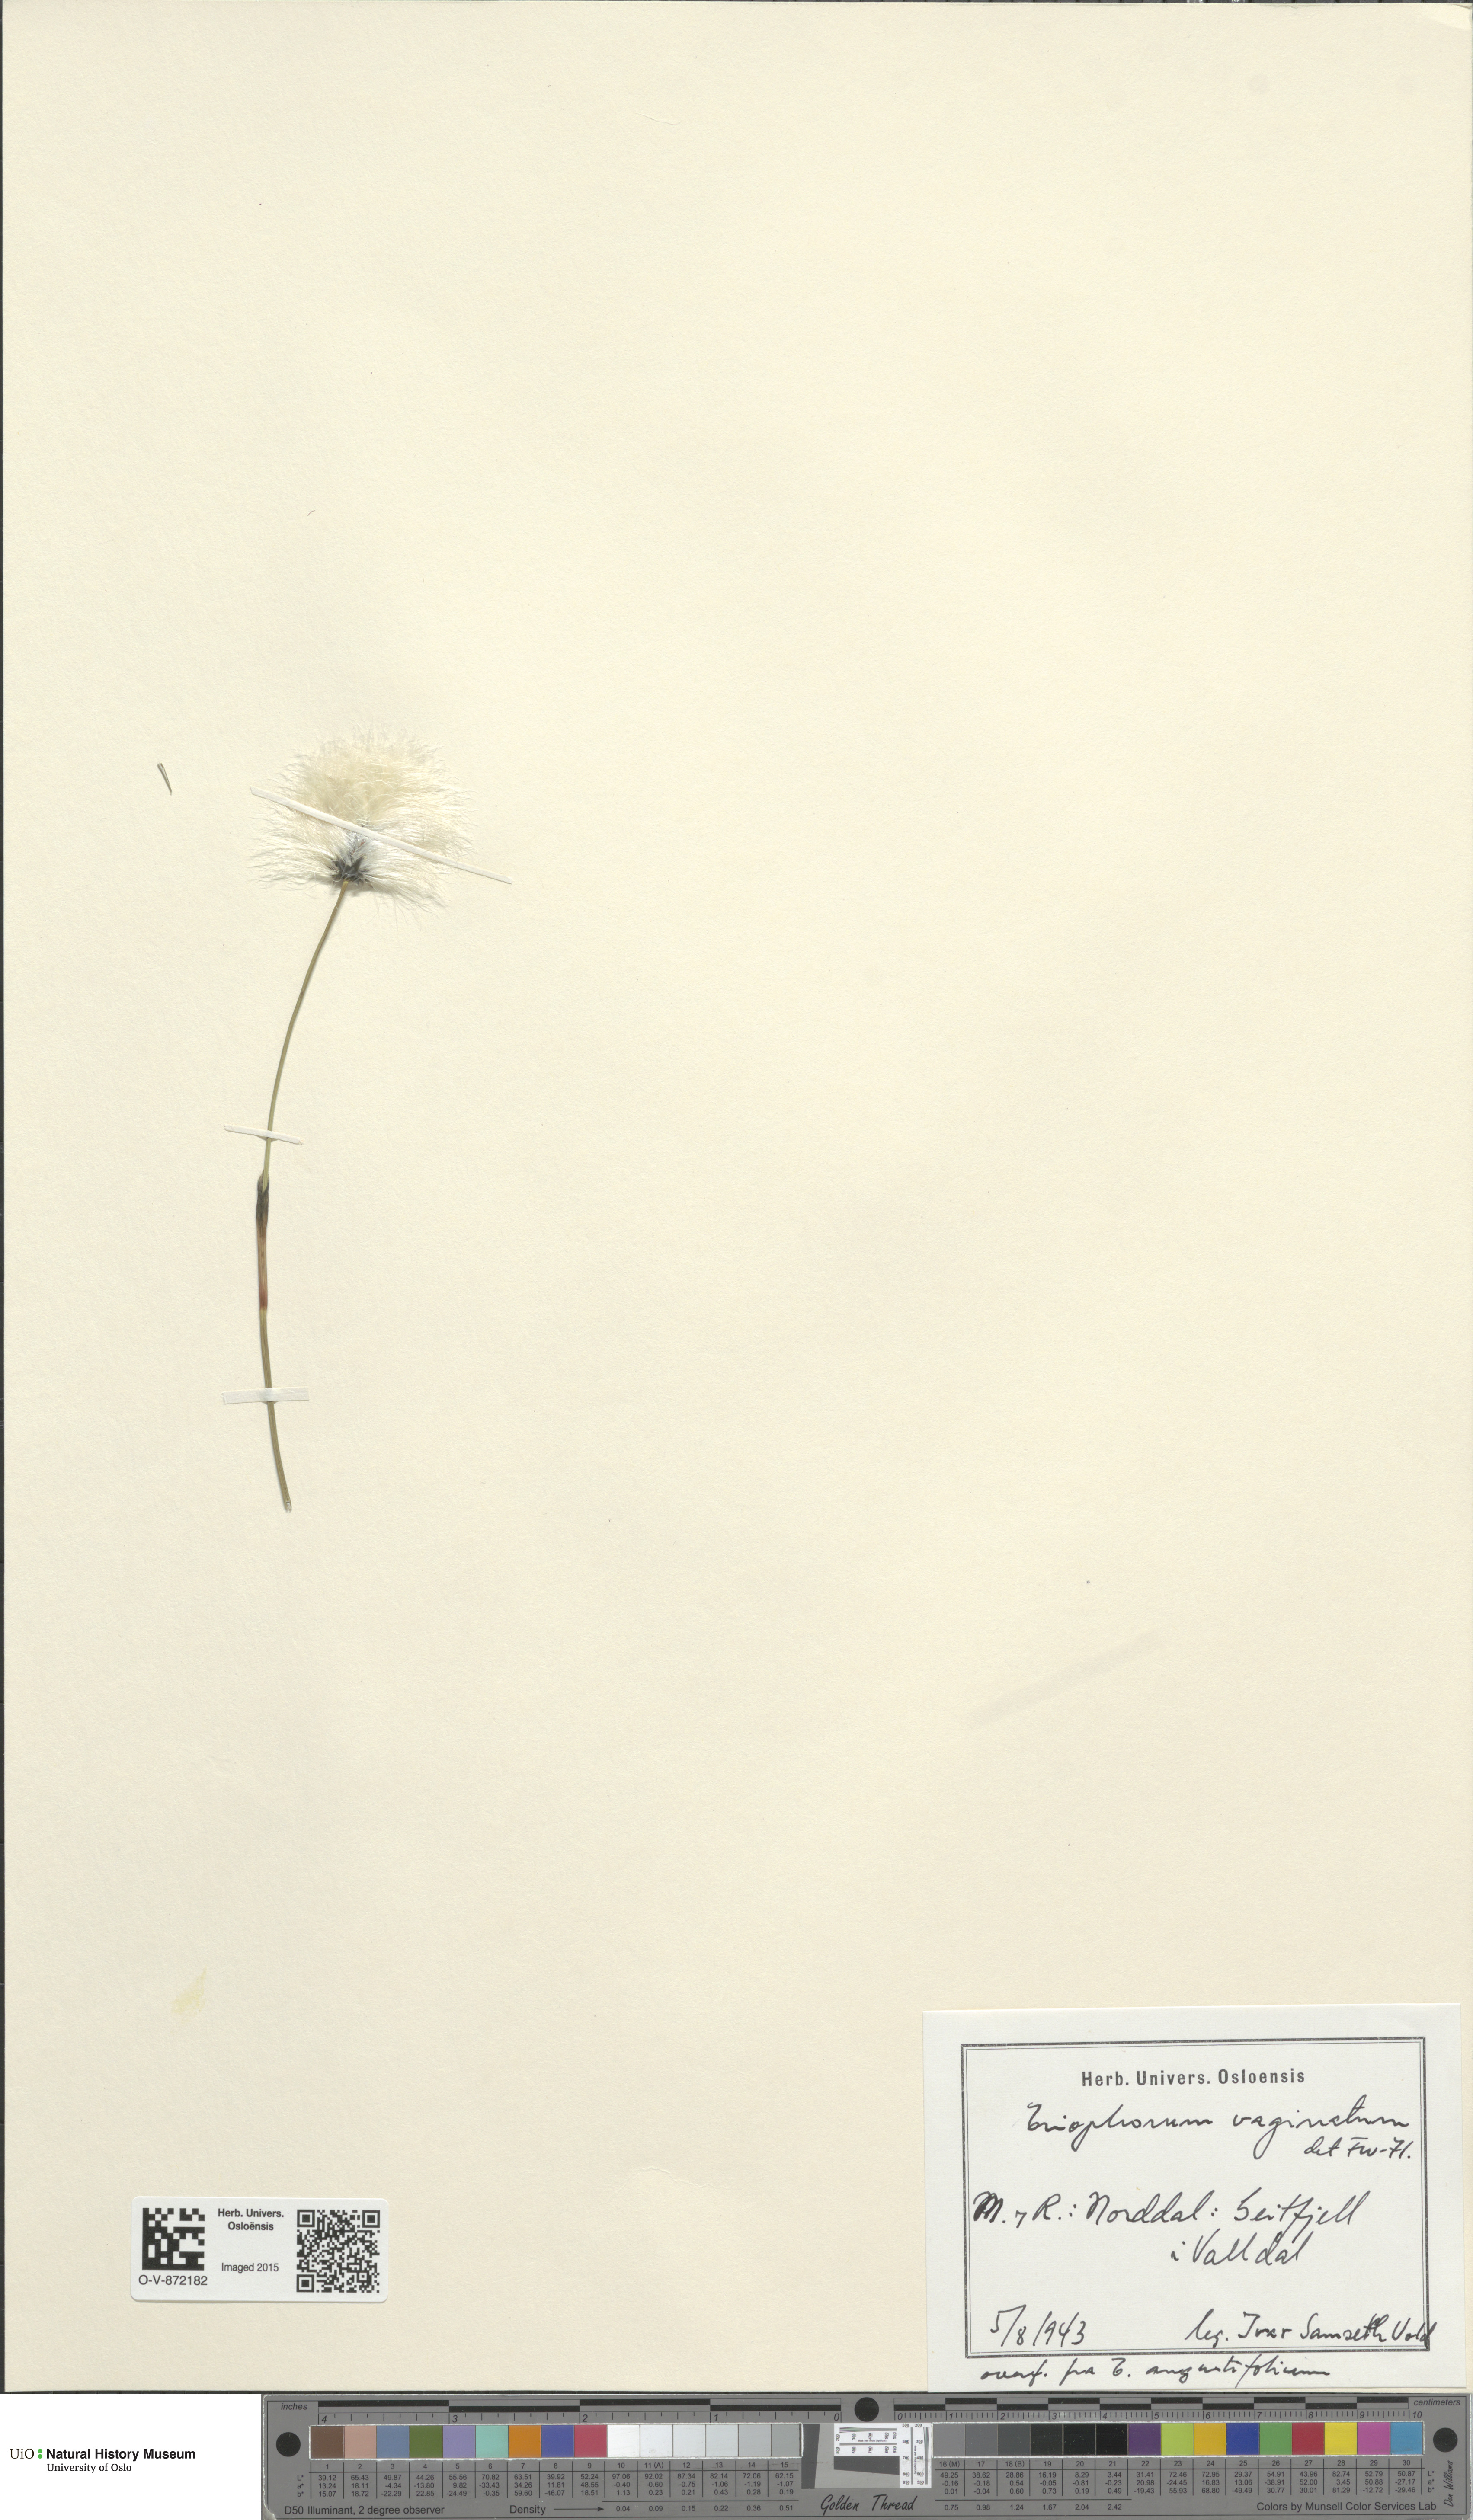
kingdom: Plantae
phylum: Tracheophyta
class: Liliopsida
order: Poales
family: Cyperaceae
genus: Eriophorum
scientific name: Eriophorum vaginatum
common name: Hare's-tail cottongrass
